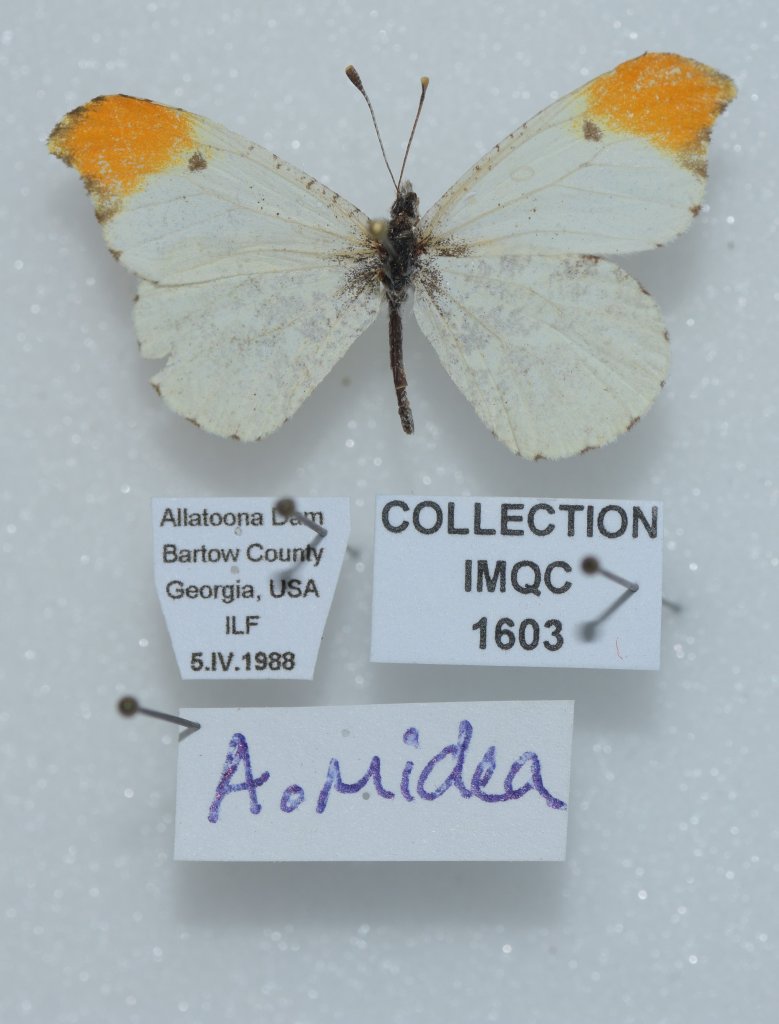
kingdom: Animalia
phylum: Arthropoda
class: Insecta
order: Lepidoptera
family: Pieridae
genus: Anthocharis
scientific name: Anthocharis midea
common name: Falcate Orangetip
